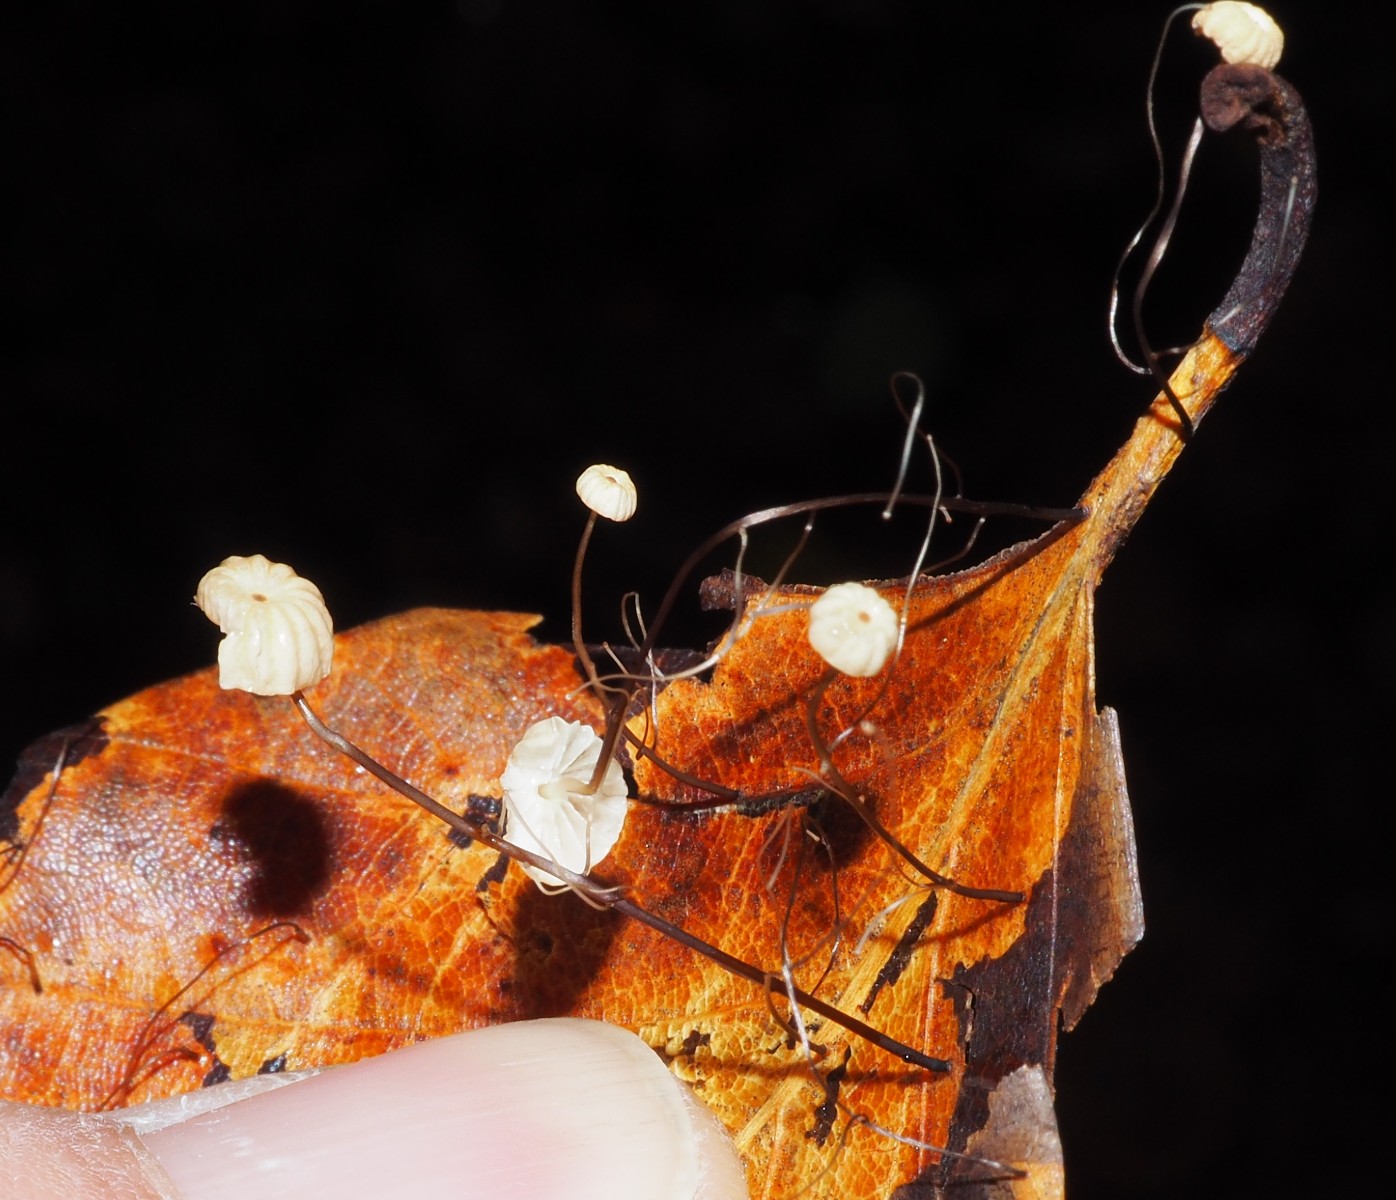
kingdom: Fungi
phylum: Basidiomycota
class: Agaricomycetes
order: Agaricales
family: Marasmiaceae
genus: Marasmius
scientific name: Marasmius bulliardii
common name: furet bruskhat
